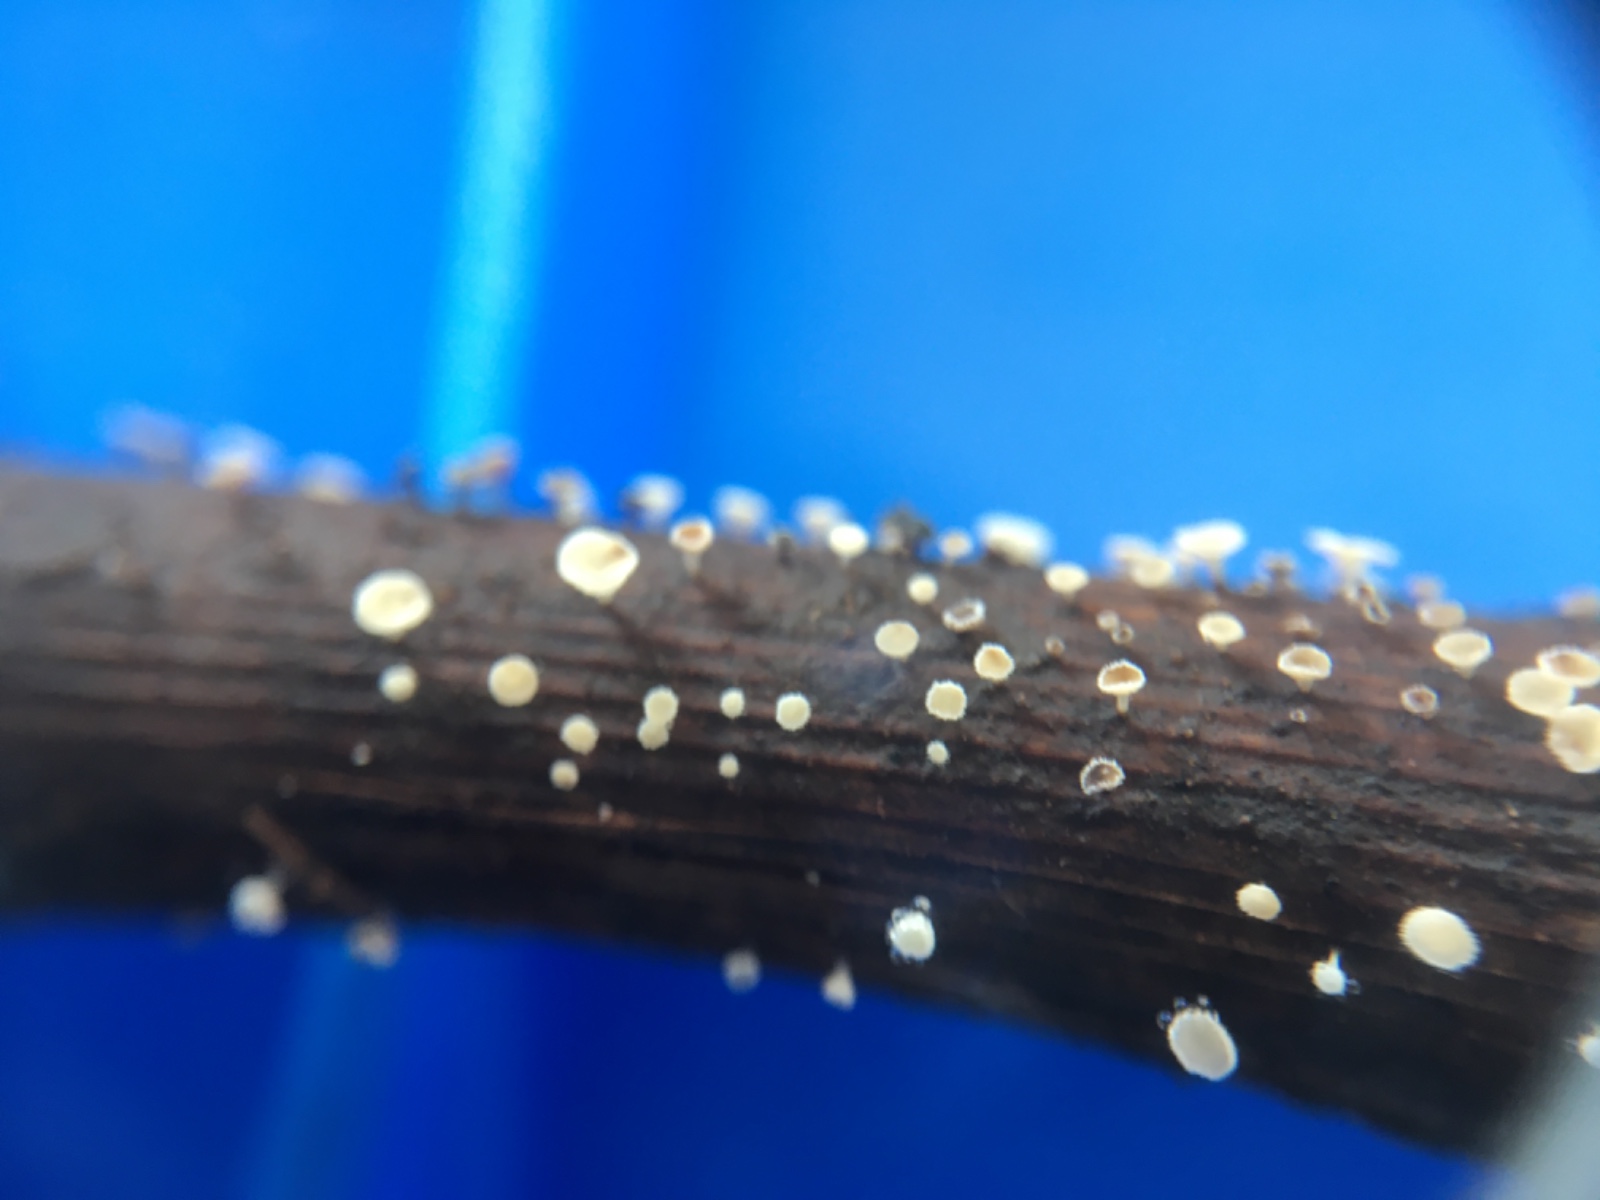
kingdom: Fungi
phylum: Ascomycota
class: Leotiomycetes
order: Helotiales
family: Lachnaceae
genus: Lachnum
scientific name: Lachnum
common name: frynseskive
